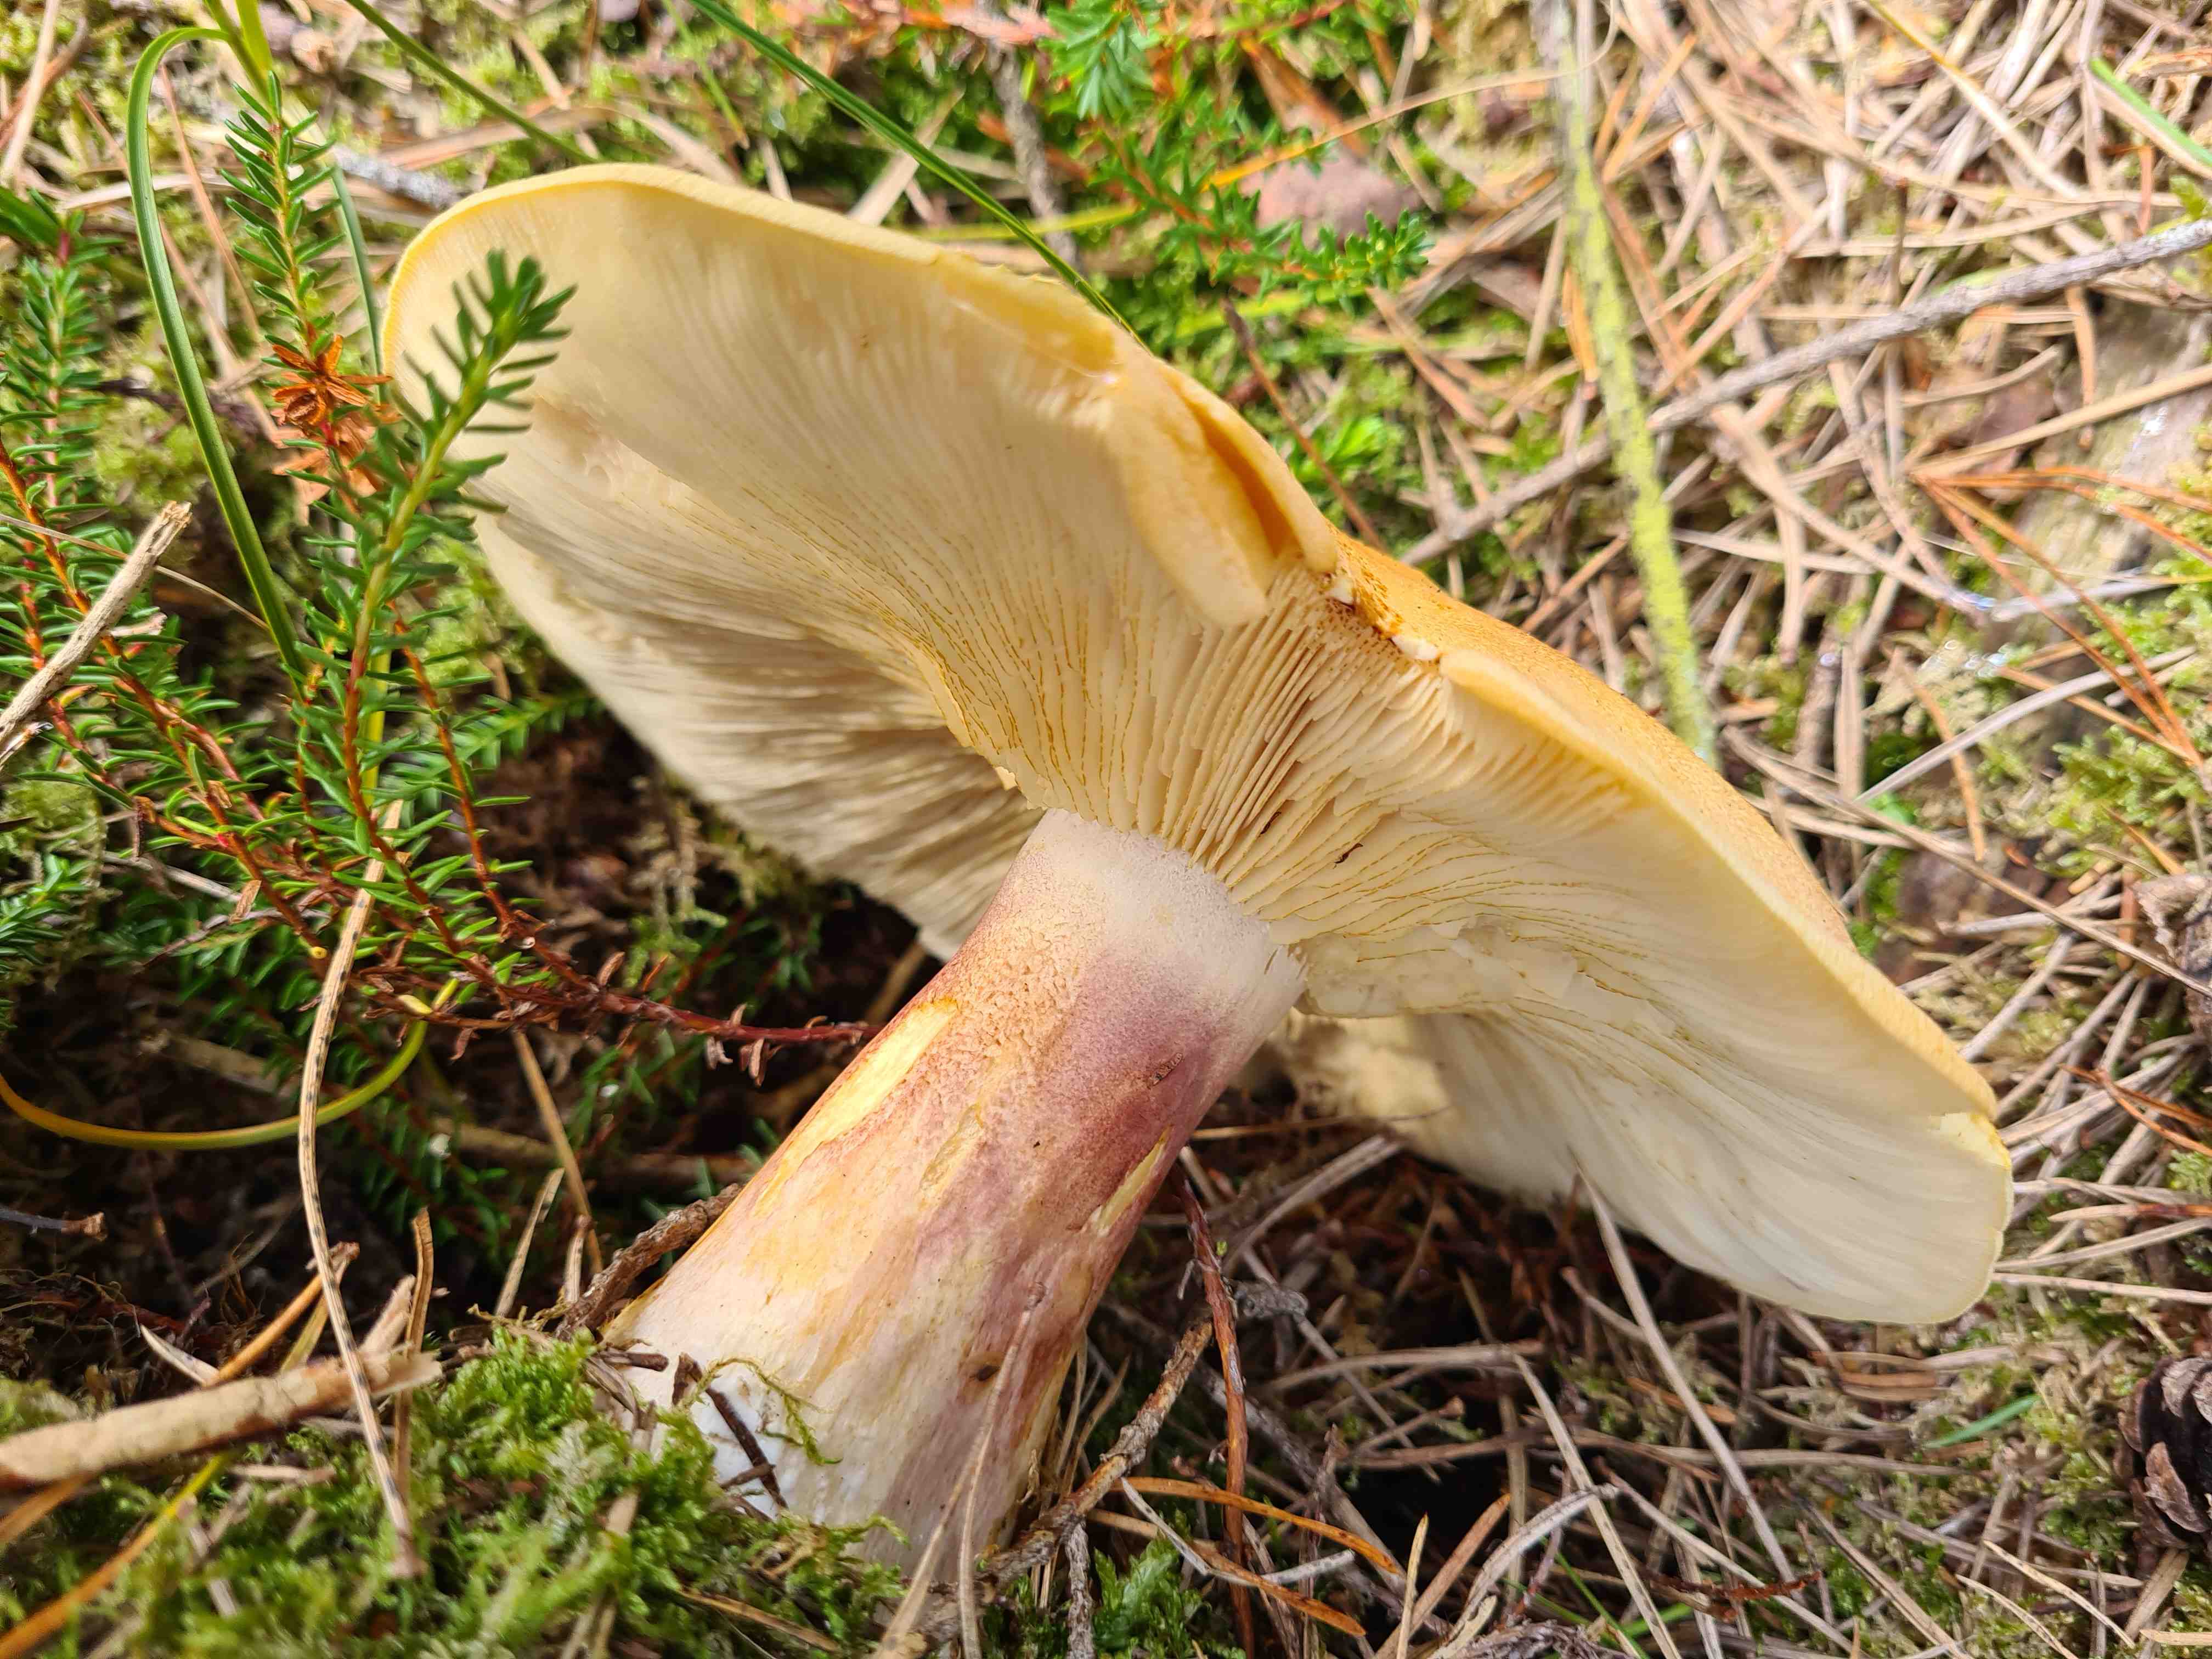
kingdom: Fungi
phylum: Basidiomycota
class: Agaricomycetes
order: Agaricales
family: Tricholomataceae
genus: Tricholomopsis
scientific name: Tricholomopsis rutilans
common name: purpur-væbnerhat
